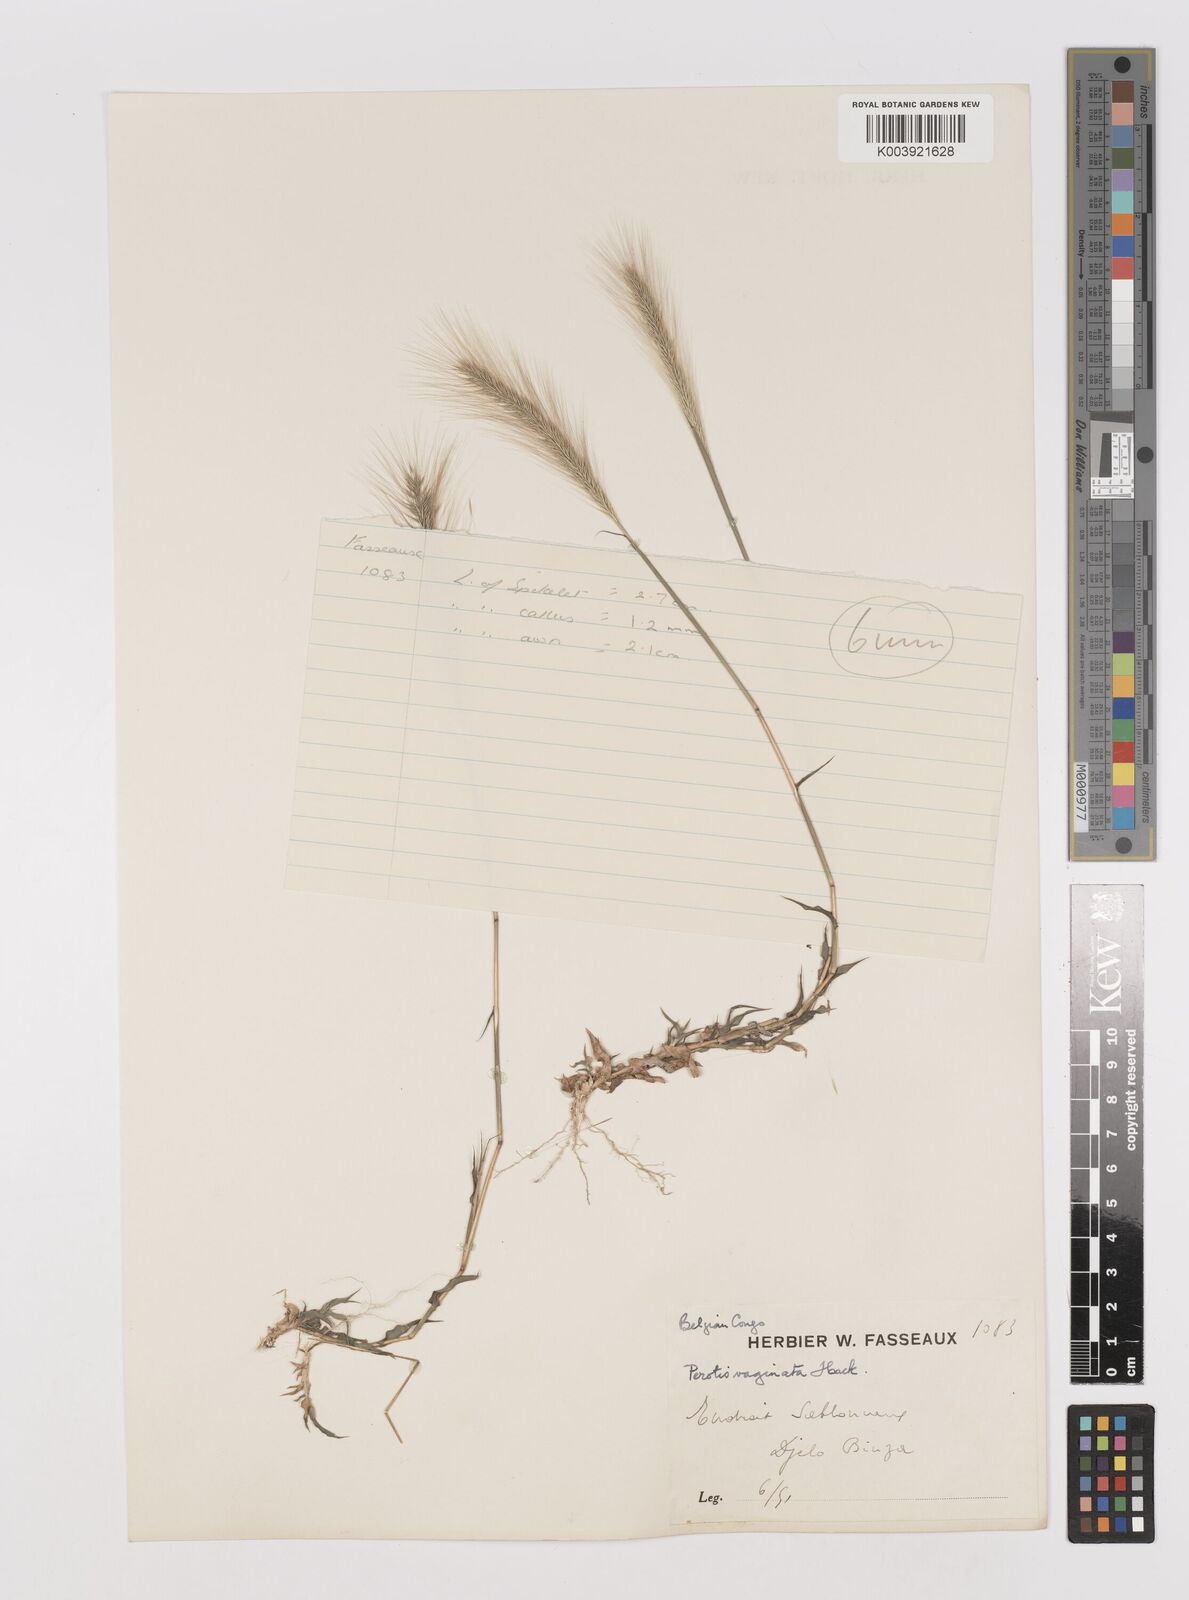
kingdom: Plantae
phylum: Tracheophyta
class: Liliopsida
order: Poales
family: Poaceae
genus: Perotis
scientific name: Perotis vaginata
